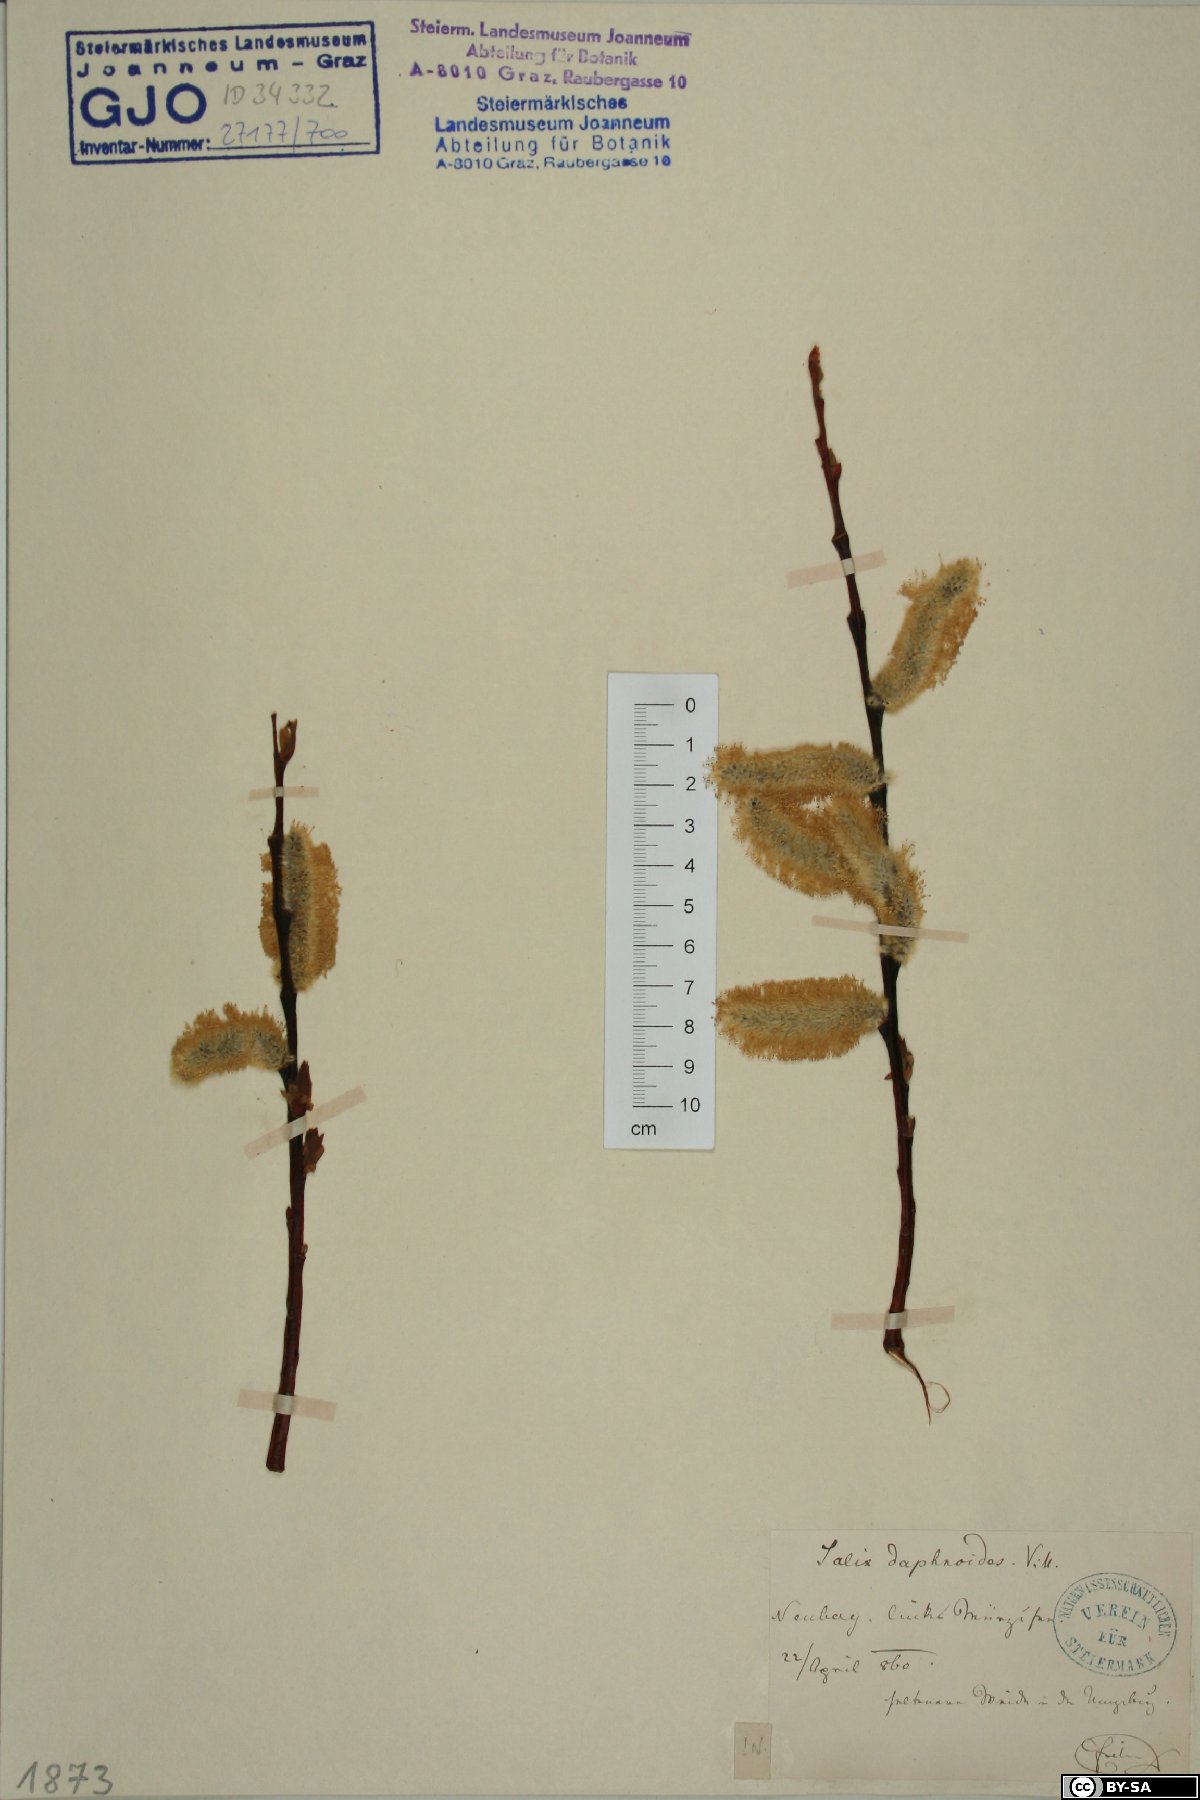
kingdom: Plantae
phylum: Tracheophyta
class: Magnoliopsida
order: Malpighiales
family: Salicaceae
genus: Salix
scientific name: Salix daphnoides
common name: European violet-willow
